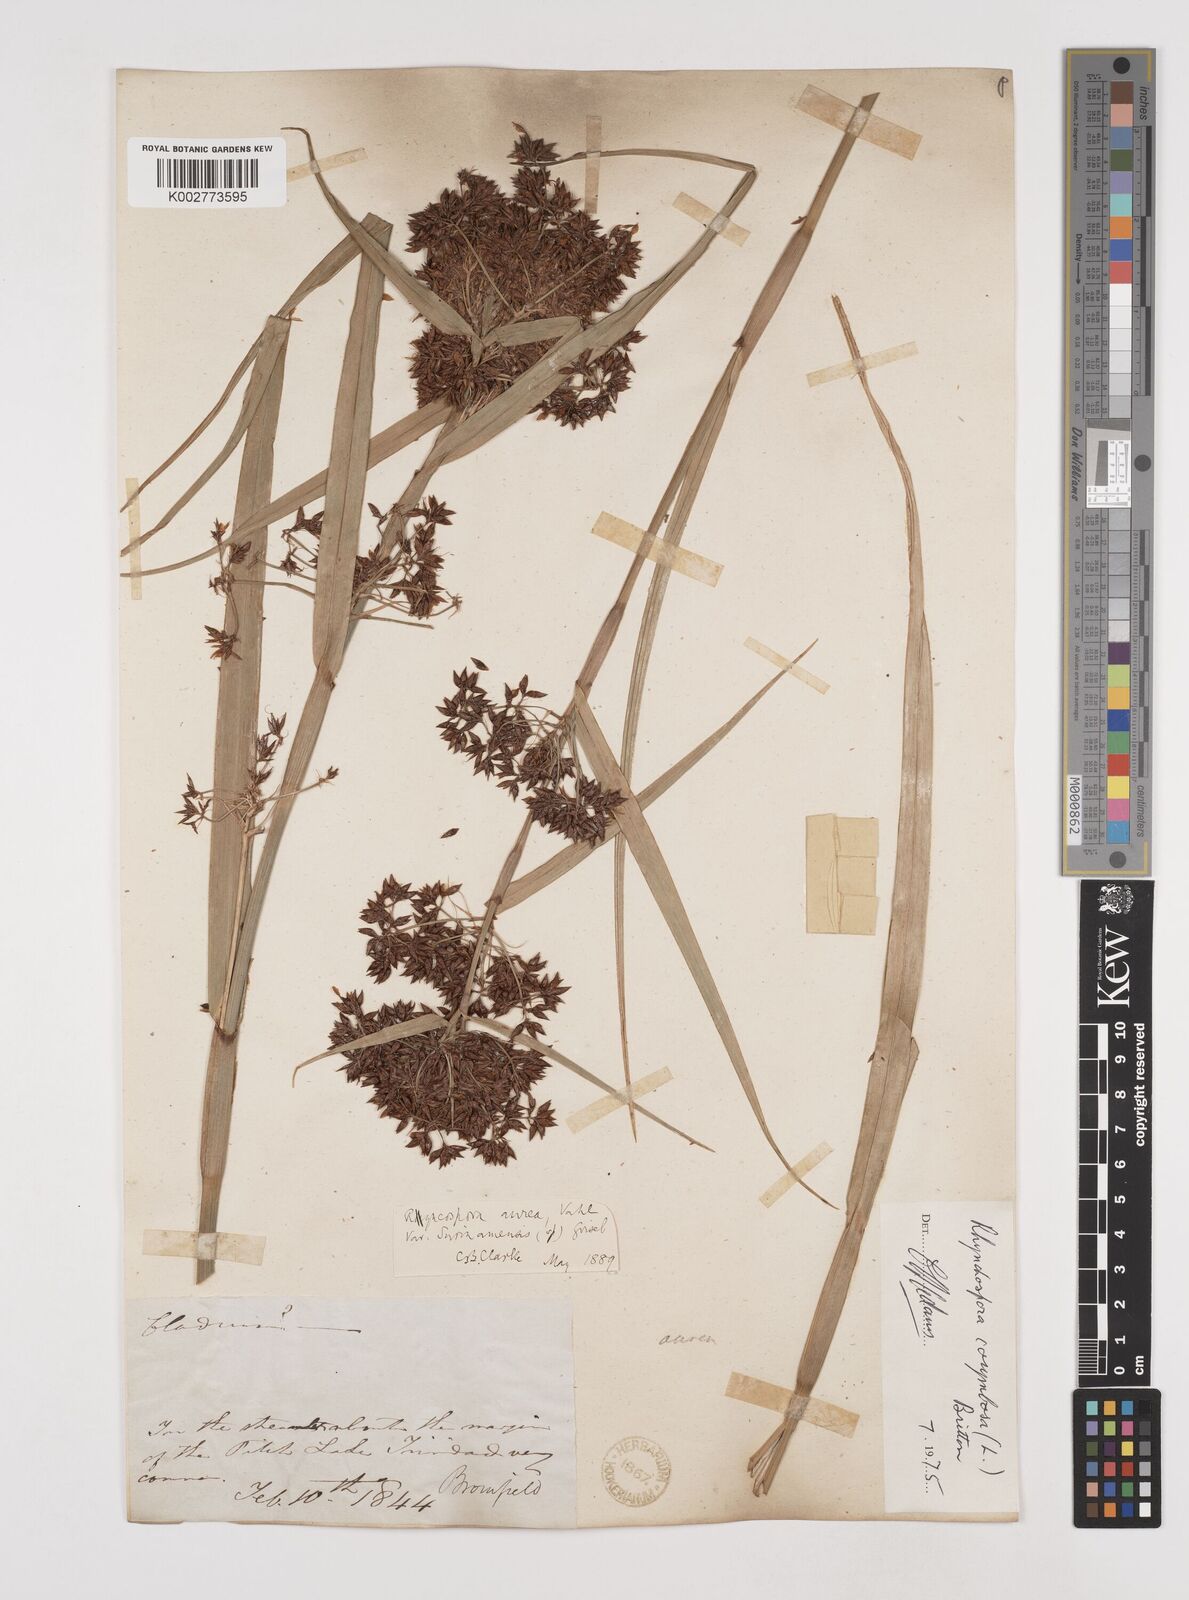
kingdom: Plantae
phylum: Tracheophyta
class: Liliopsida
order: Poales
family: Cyperaceae
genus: Rhynchospora
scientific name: Rhynchospora corymbosa
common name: Golden beak sedge
